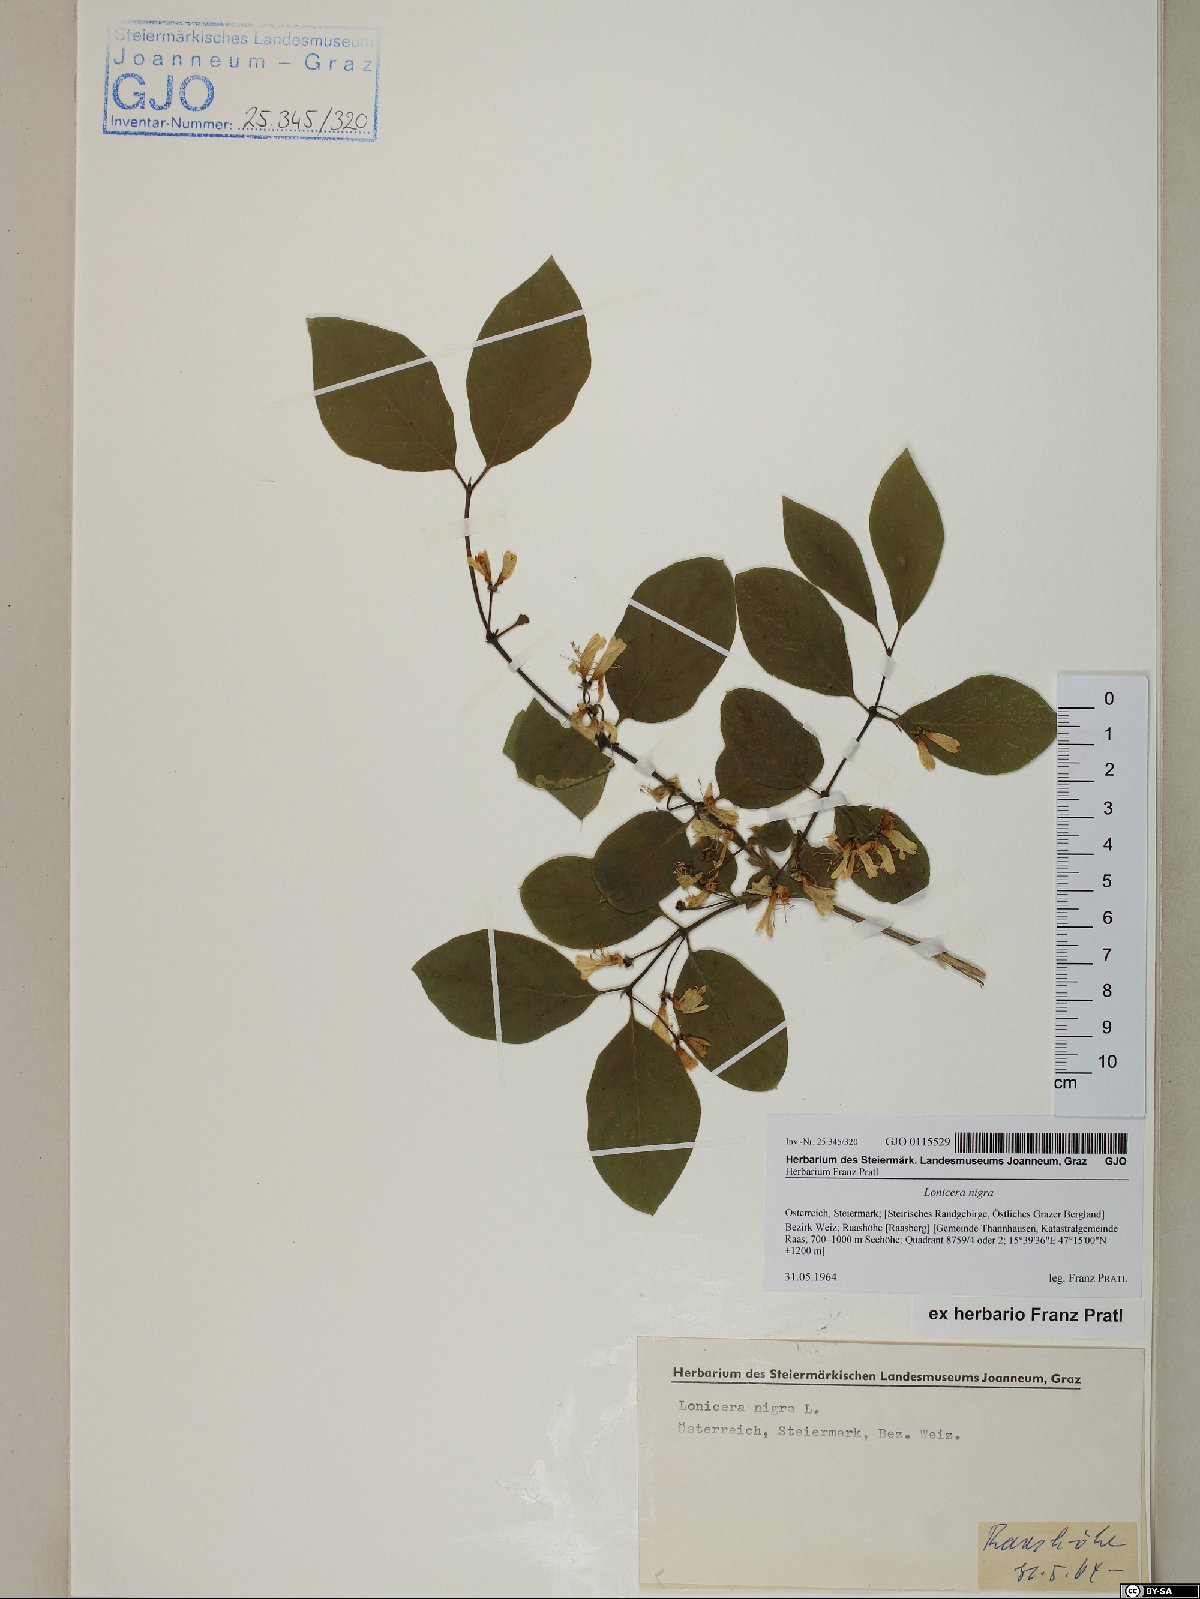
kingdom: Plantae
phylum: Tracheophyta
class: Magnoliopsida
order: Dipsacales
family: Caprifoliaceae
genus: Lonicera
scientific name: Lonicera nigra
